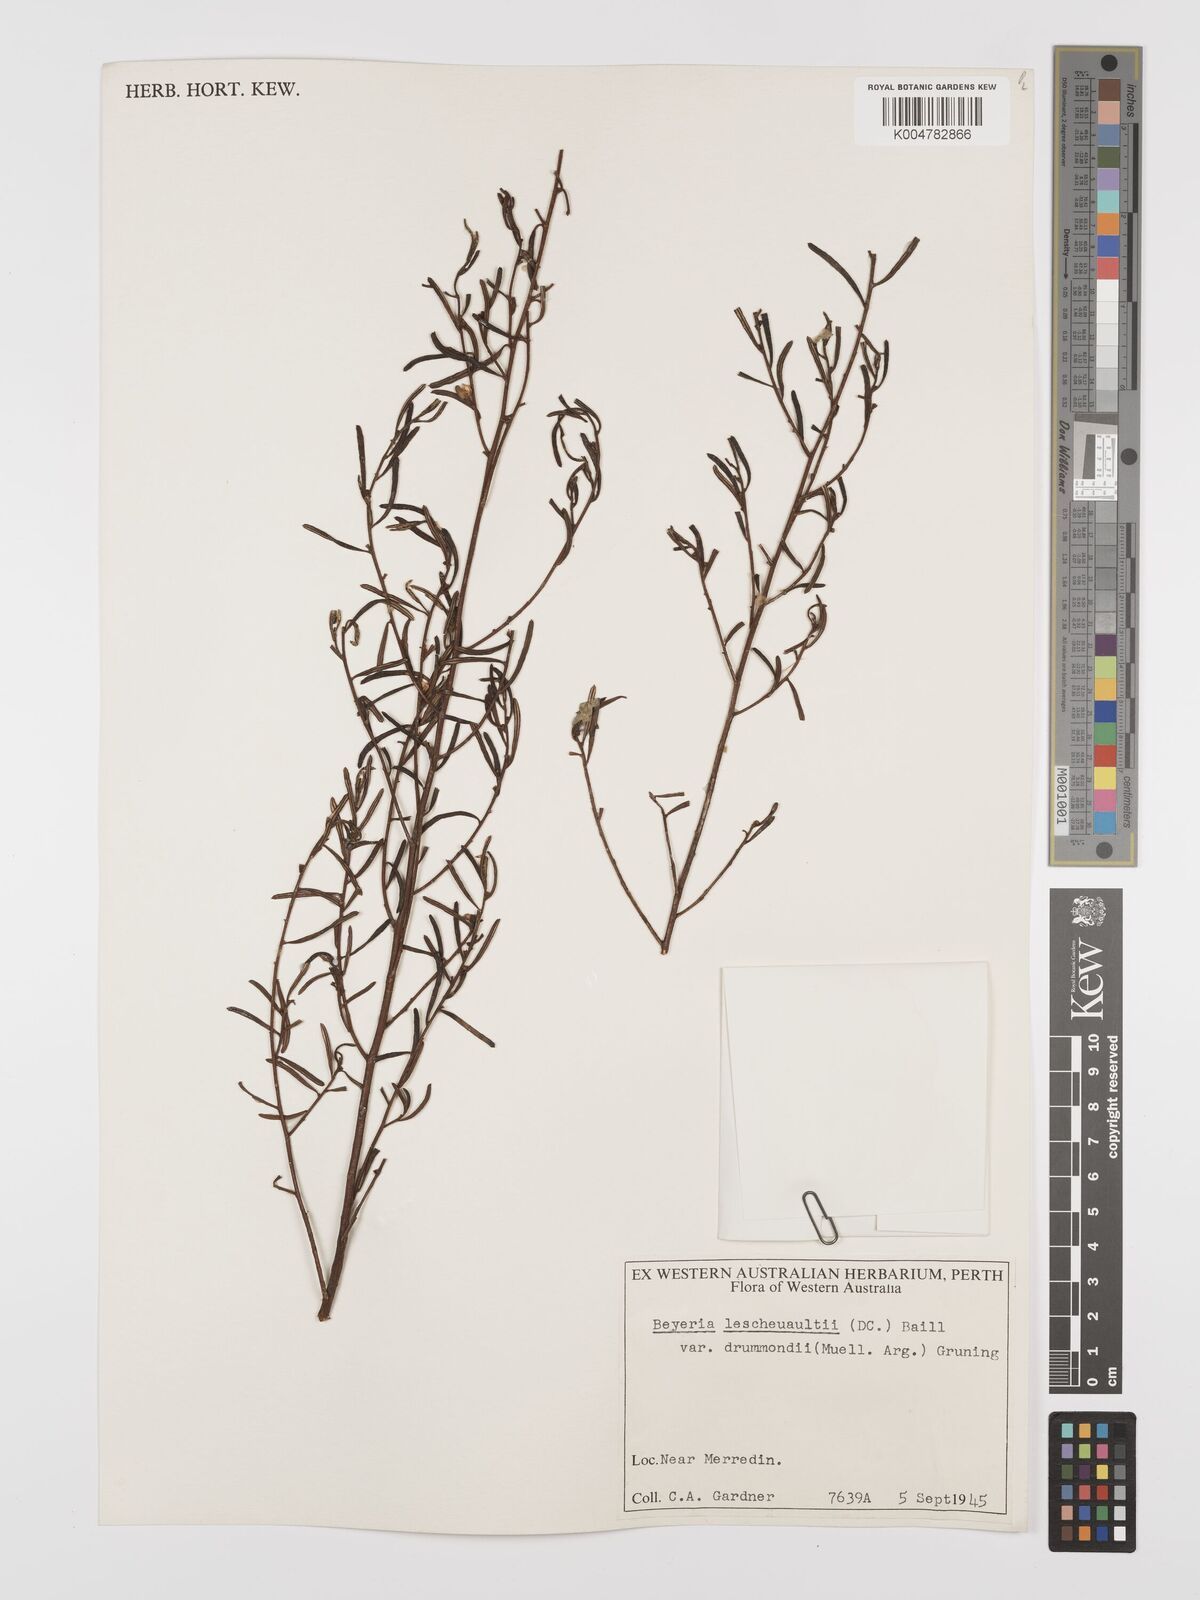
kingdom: Plantae
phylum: Tracheophyta
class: Magnoliopsida
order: Malpighiales
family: Euphorbiaceae
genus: Beyeria
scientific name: Beyeria lechenaultii
